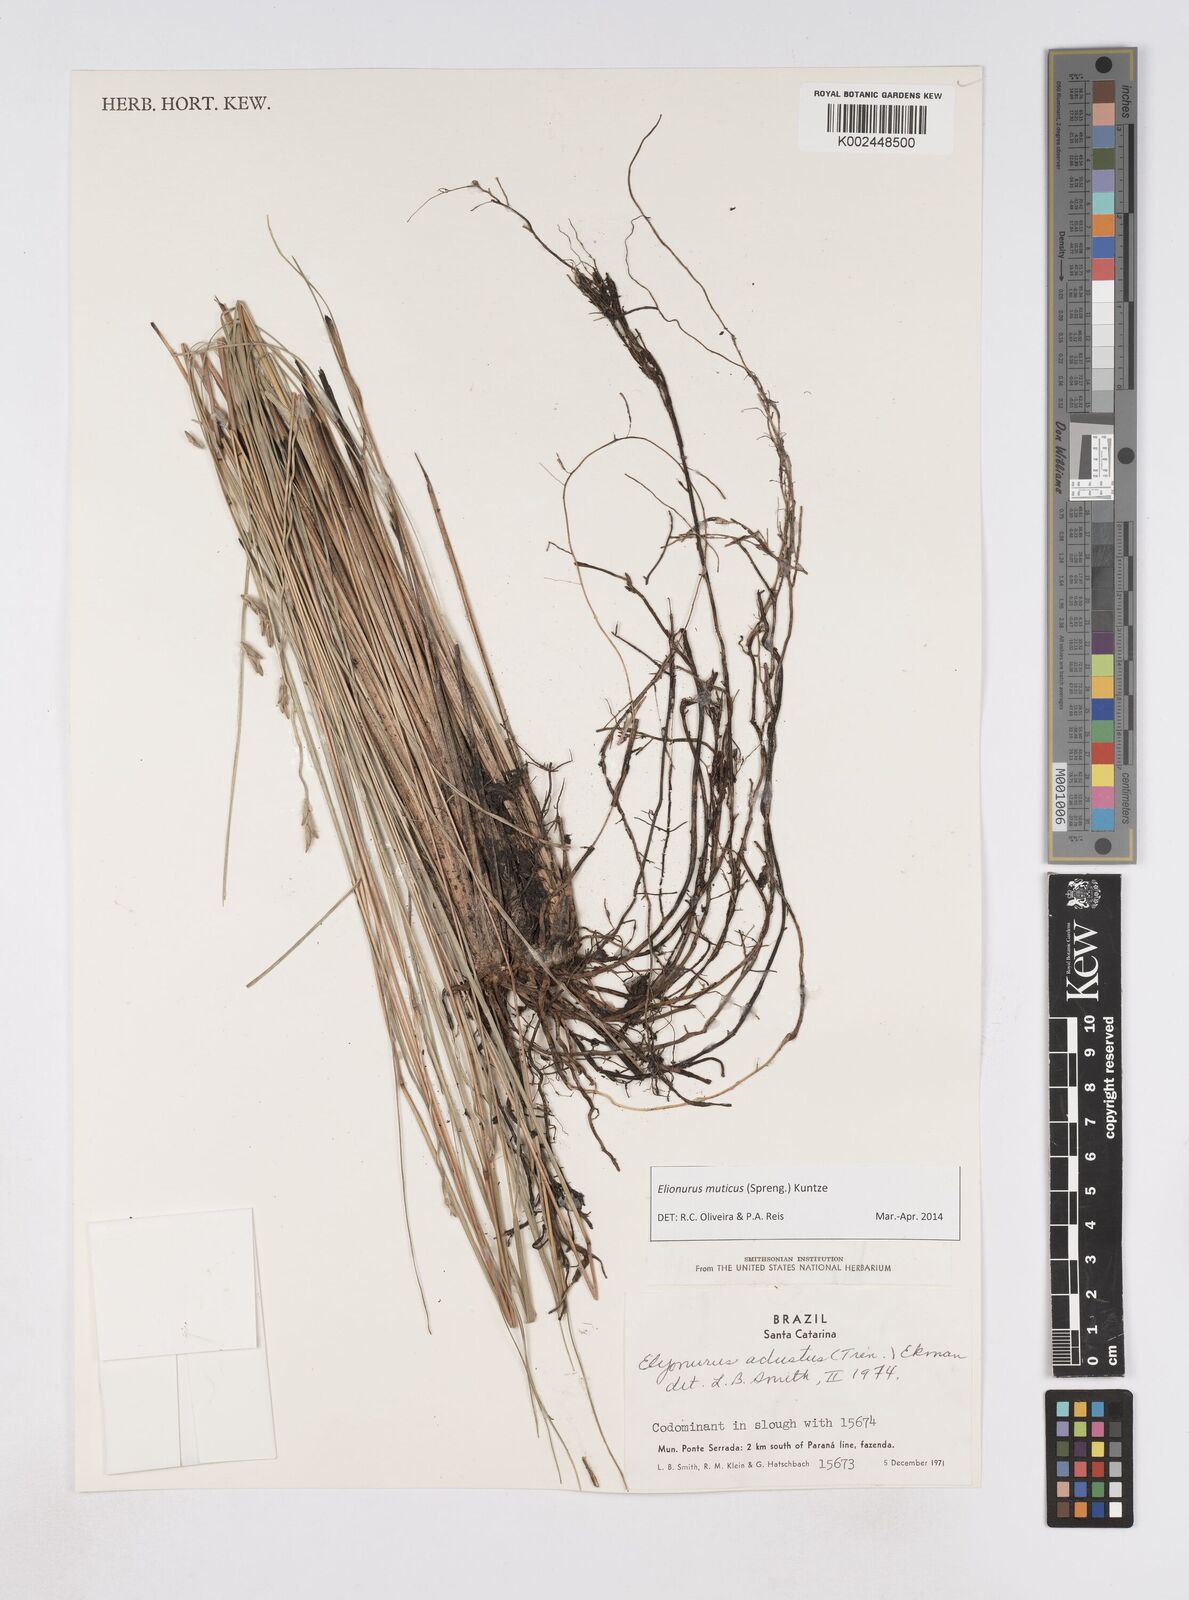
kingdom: Plantae
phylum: Tracheophyta
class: Liliopsida
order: Poales
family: Poaceae
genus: Elionurus
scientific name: Elionurus muticus
